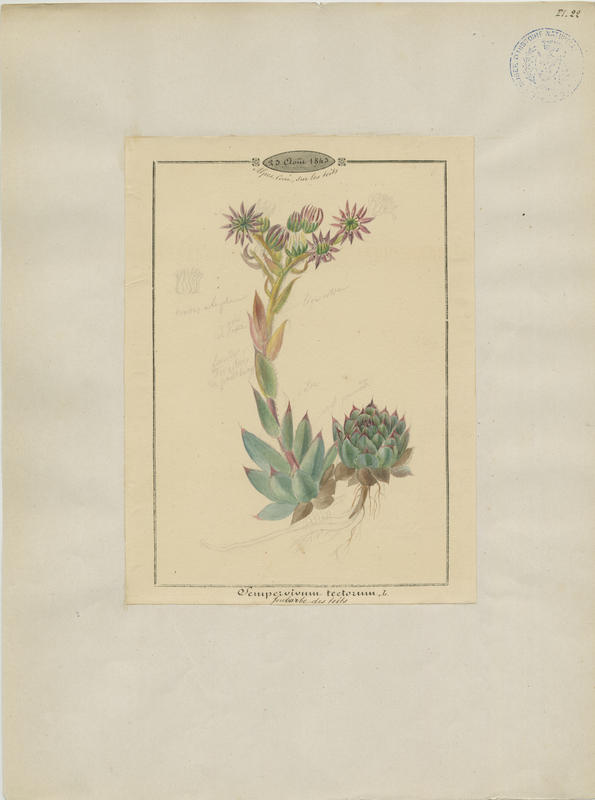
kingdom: Plantae
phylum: Tracheophyta
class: Magnoliopsida
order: Saxifragales
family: Crassulaceae
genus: Sempervivum
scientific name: Sempervivum tectorum
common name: House-leek
